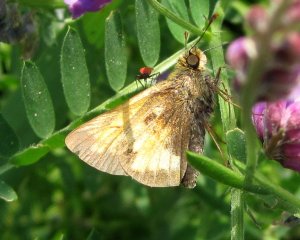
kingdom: Animalia
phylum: Arthropoda
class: Insecta
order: Lepidoptera
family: Hesperiidae
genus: Lon
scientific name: Lon hobomok
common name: Hobomok Skipper
